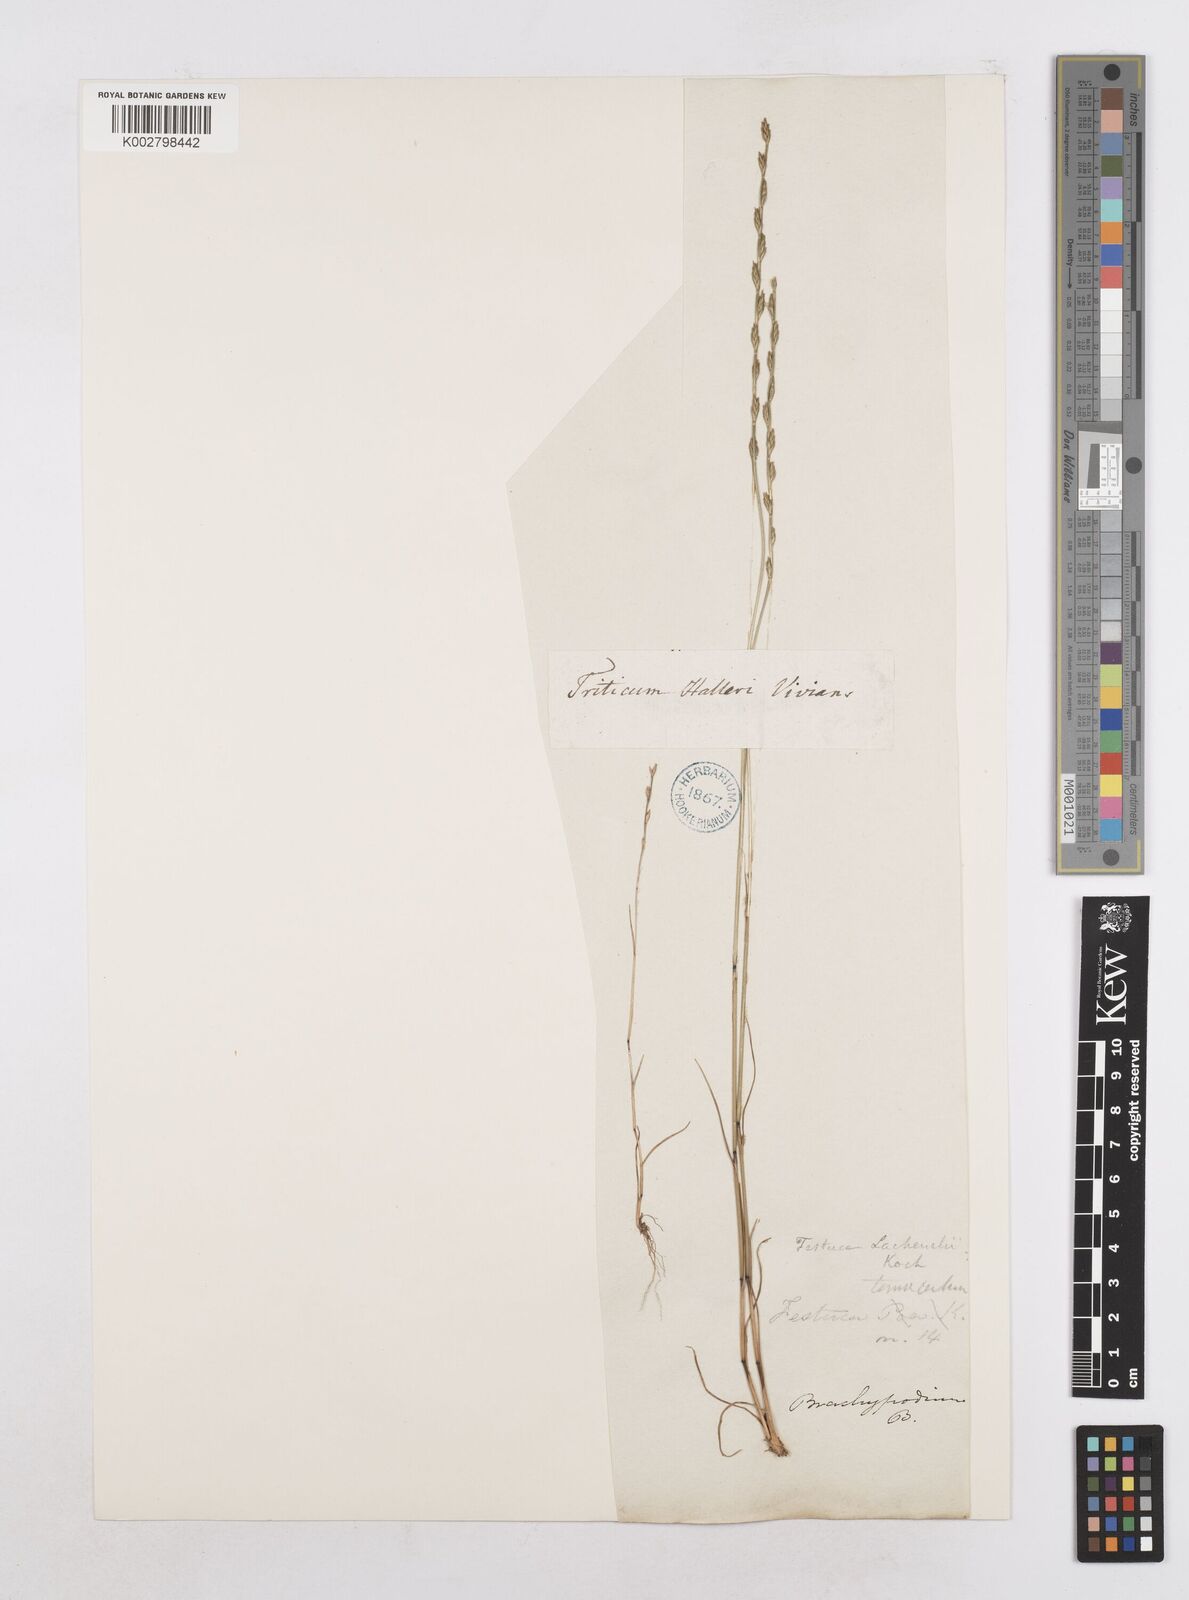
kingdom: Plantae
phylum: Tracheophyta
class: Liliopsida
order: Poales
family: Poaceae
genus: Festuca
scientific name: Festuca lachenalii
